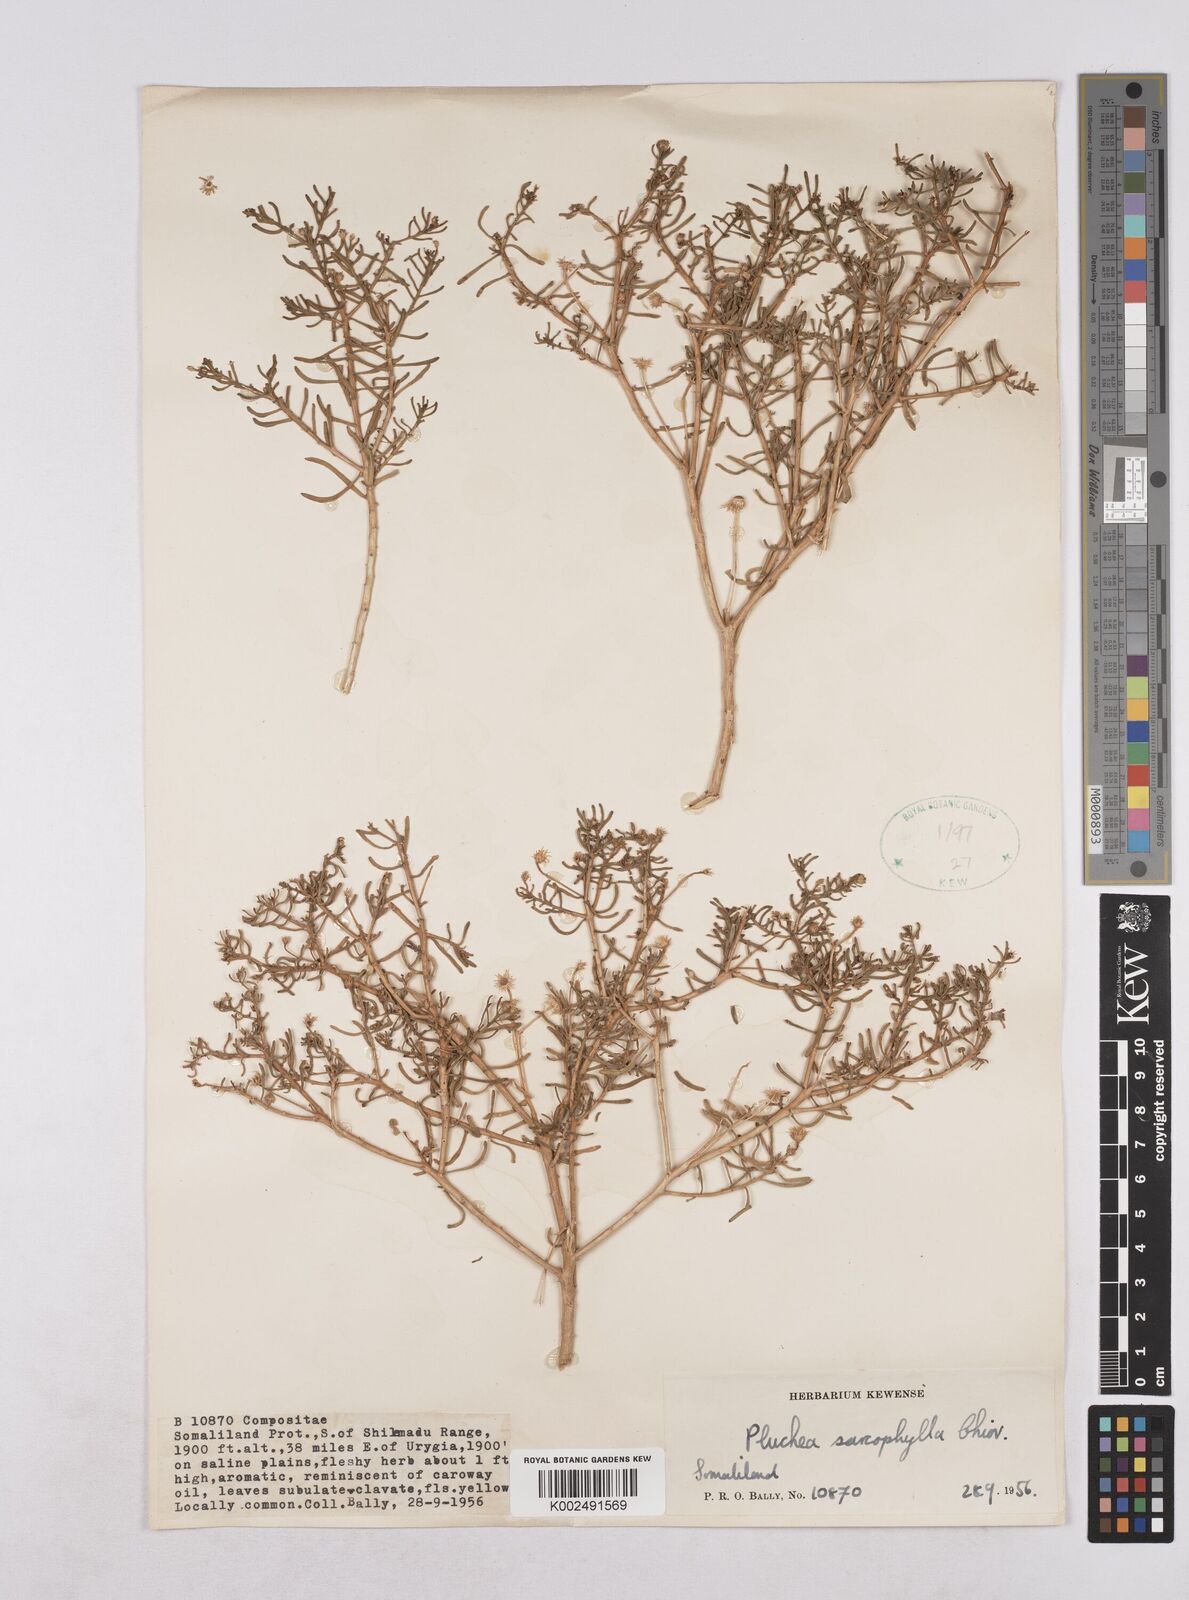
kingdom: Plantae
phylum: Tracheophyta
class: Magnoliopsida
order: Asterales
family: Asteraceae
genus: Pluchea
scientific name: Pluchea sarcophylla
